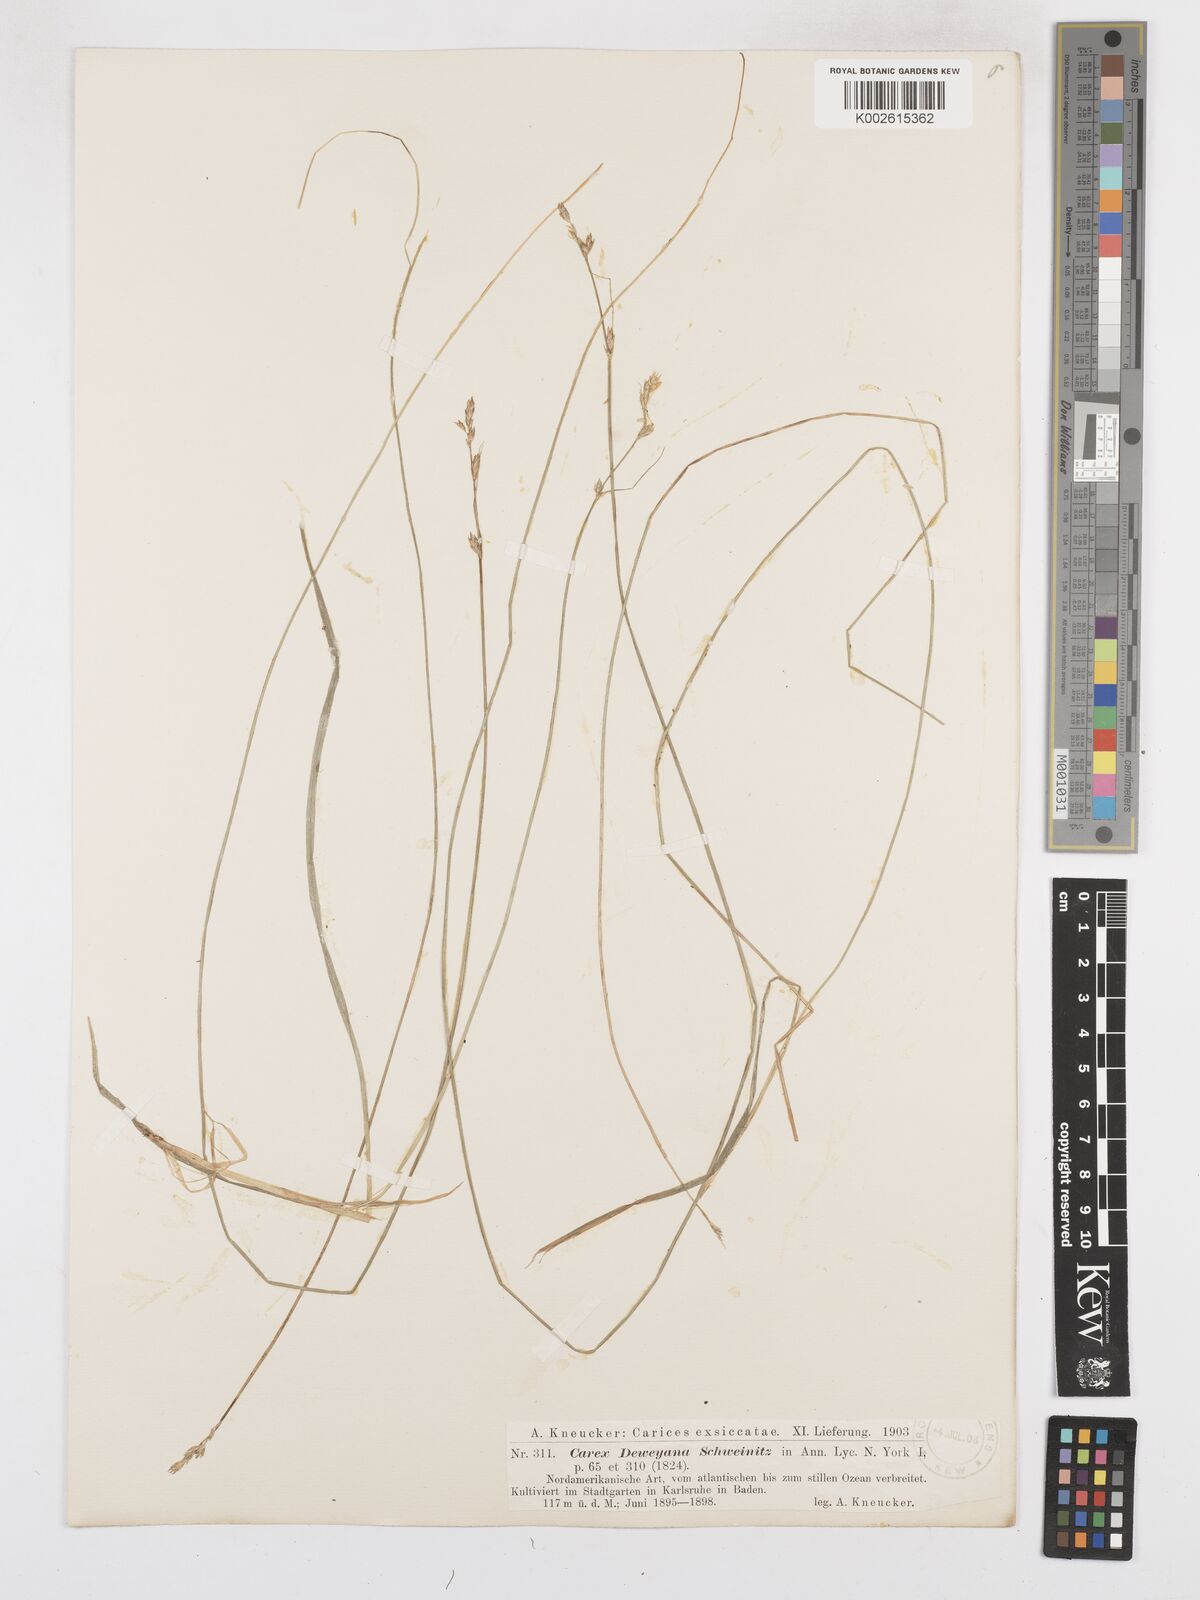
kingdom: Plantae
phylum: Tracheophyta
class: Liliopsida
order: Poales
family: Cyperaceae
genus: Carex
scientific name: Carex deweyana
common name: Dewey's sedge
